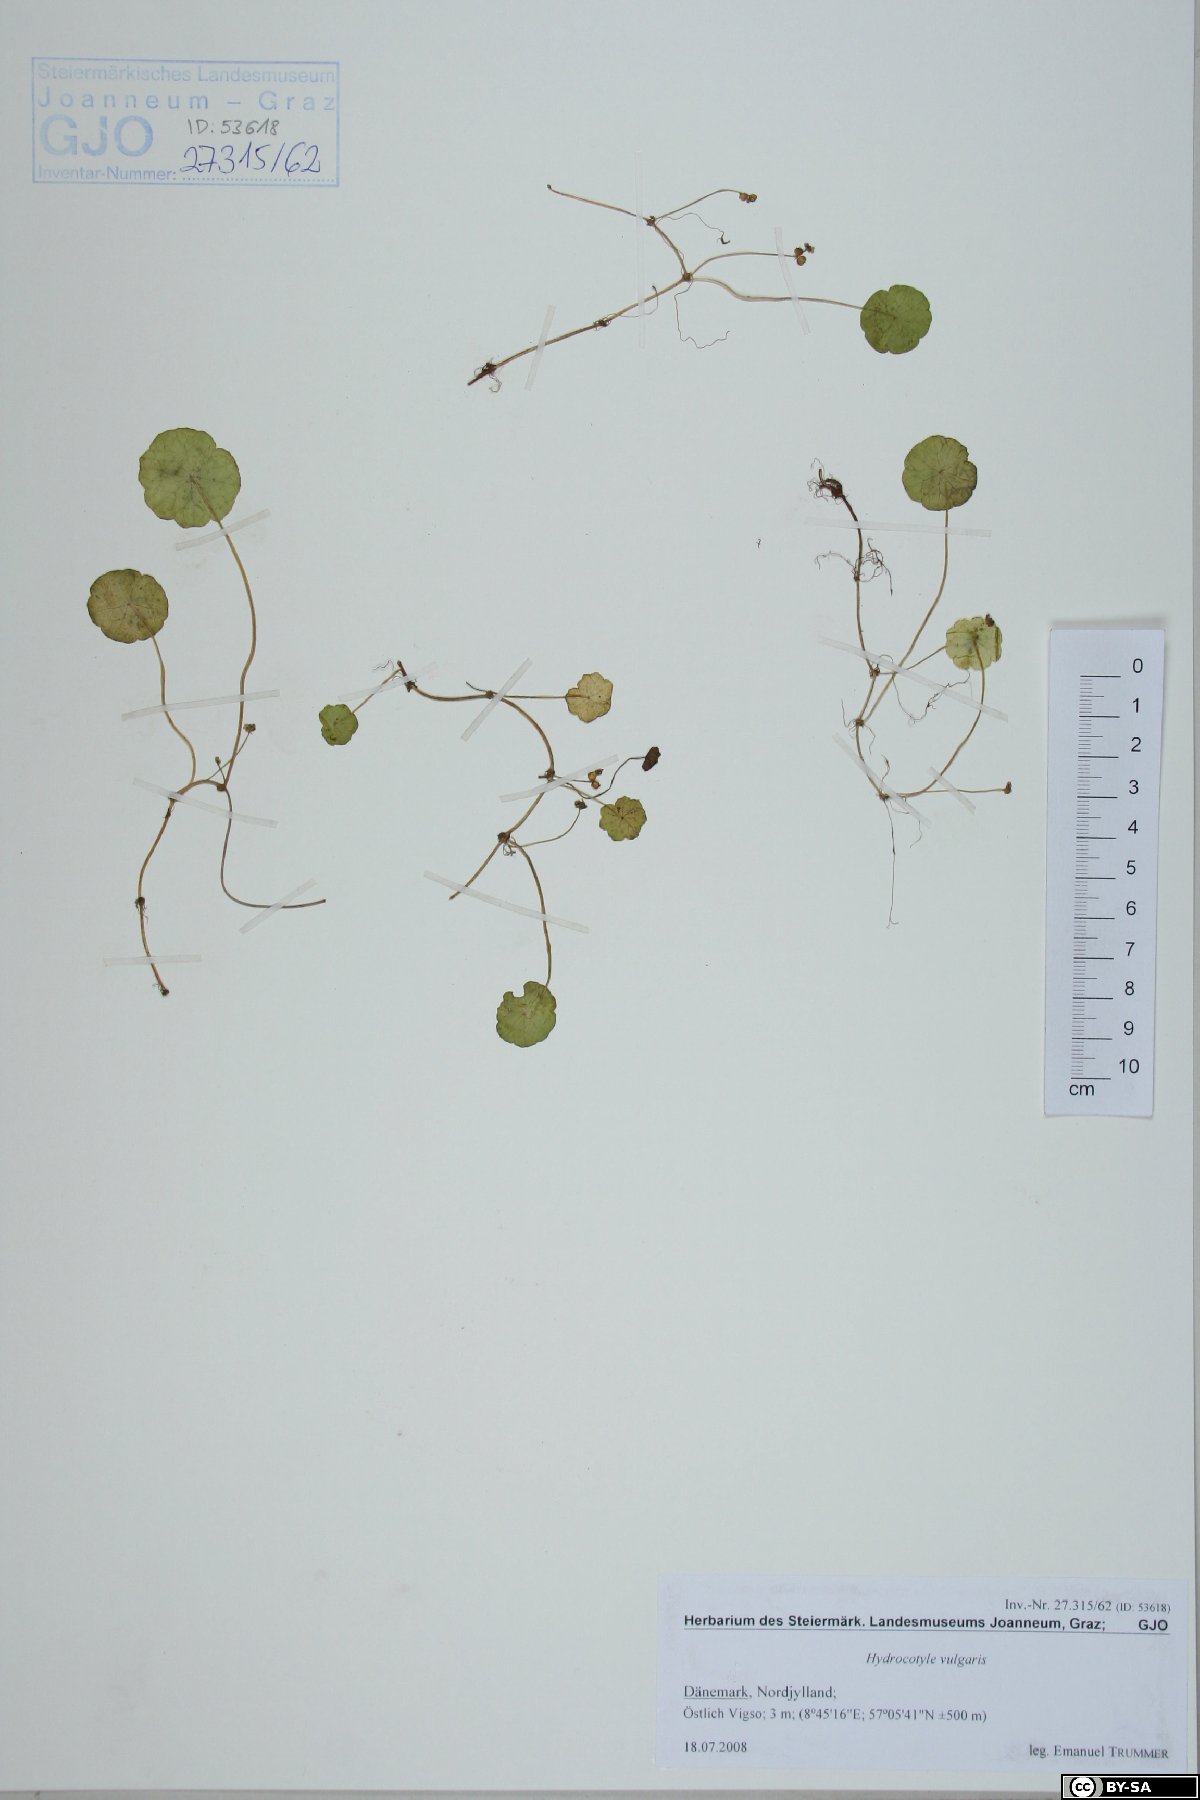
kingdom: Plantae
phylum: Tracheophyta
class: Magnoliopsida
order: Apiales
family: Araliaceae
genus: Hydrocotyle
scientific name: Hydrocotyle vulgaris
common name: Marsh pennywort
